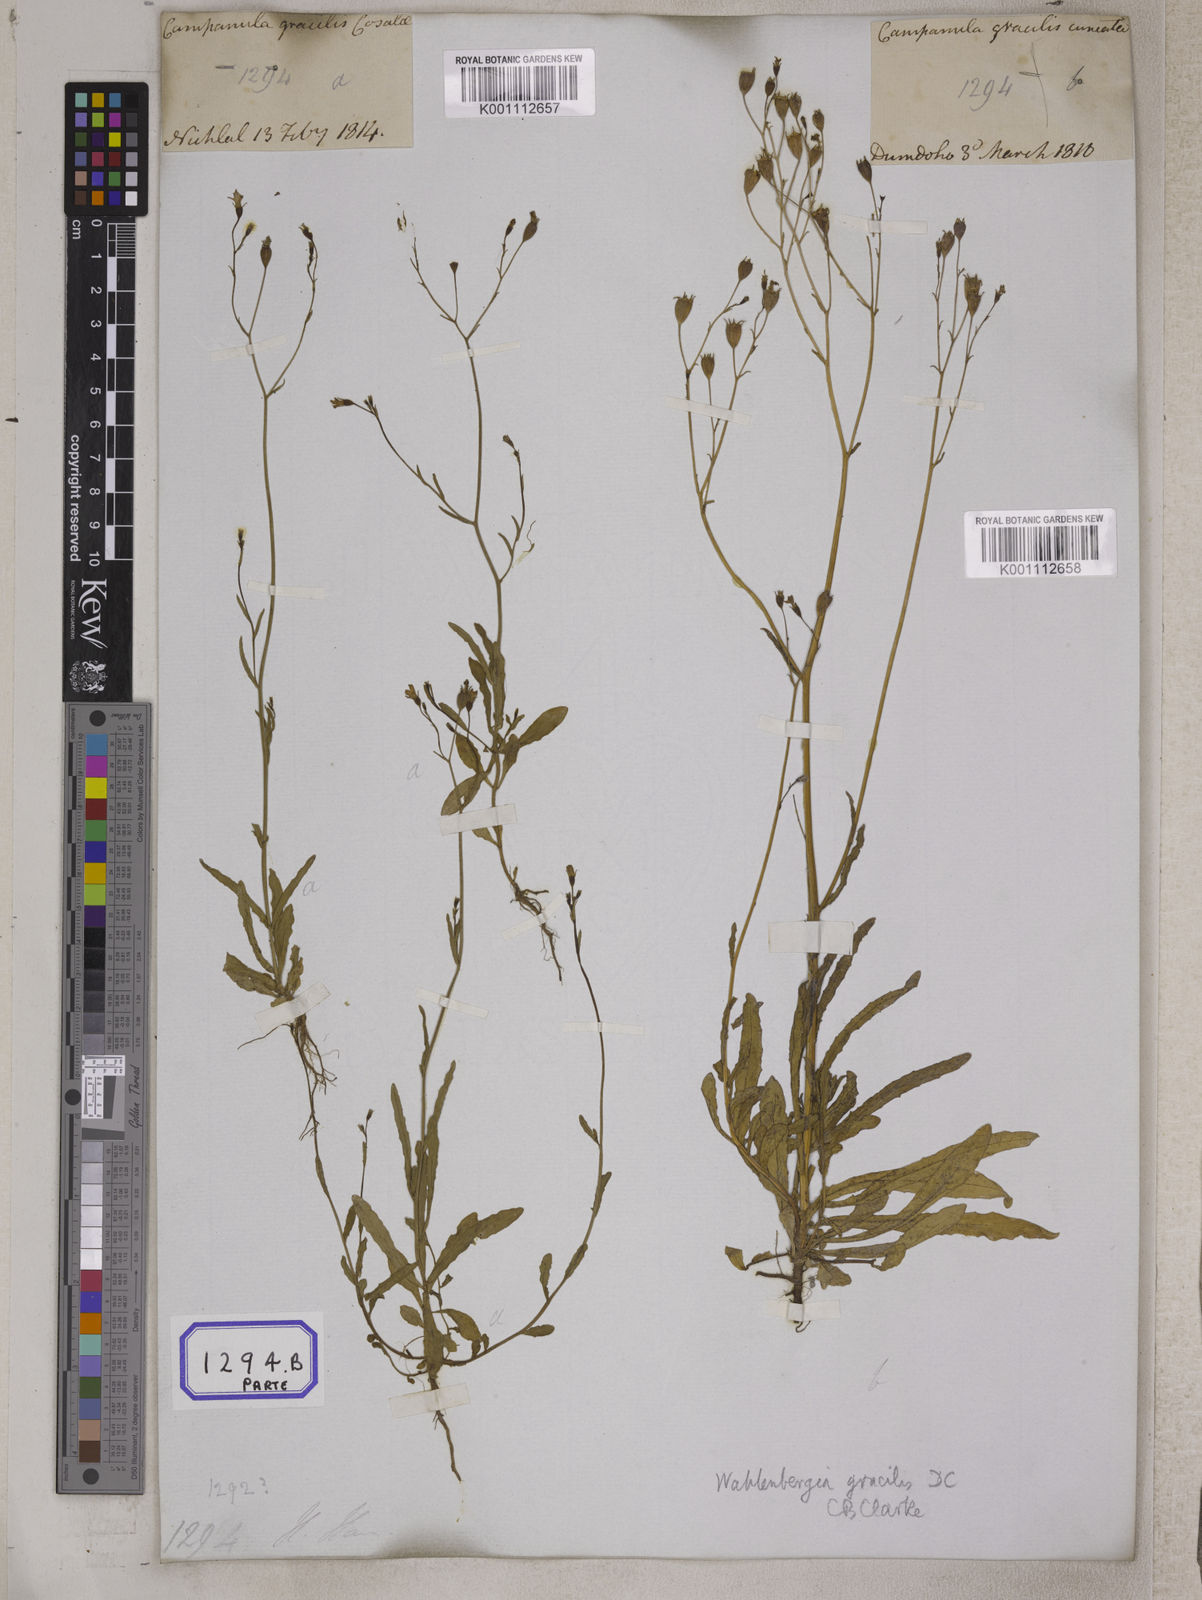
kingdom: Plantae
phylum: Tracheophyta
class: Magnoliopsida
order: Asterales
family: Campanulaceae
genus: Campanula
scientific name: Campanula
